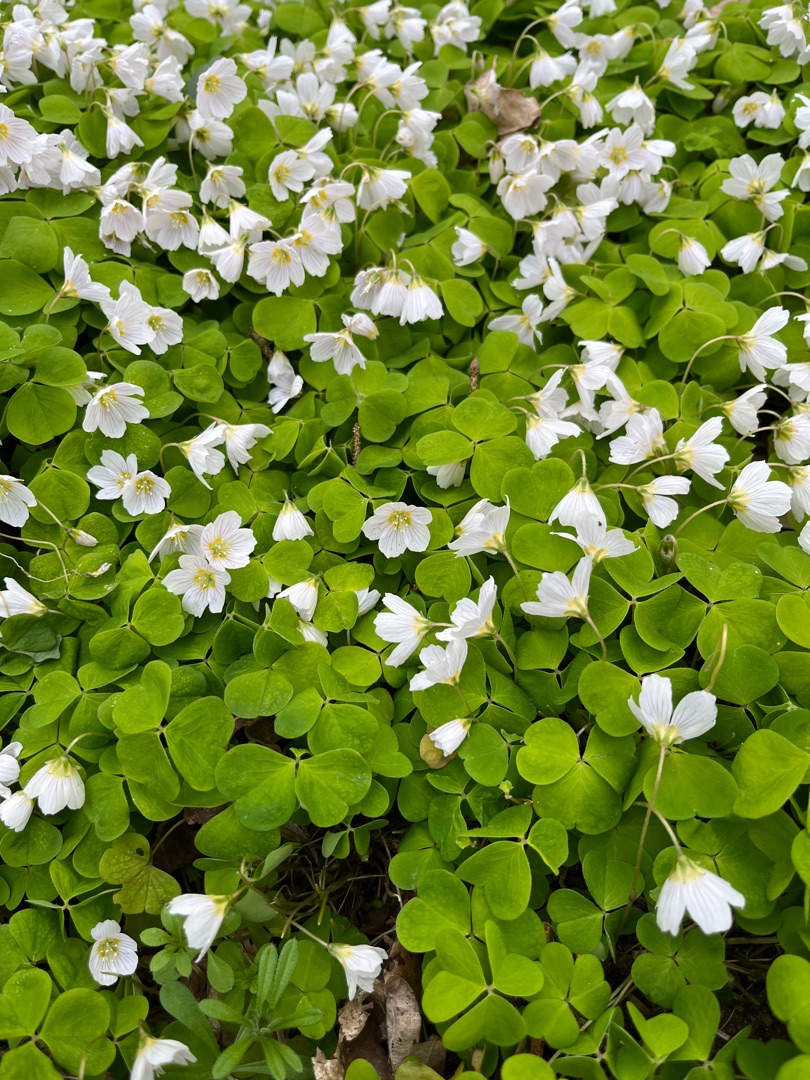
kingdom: Plantae
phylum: Tracheophyta
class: Magnoliopsida
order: Oxalidales
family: Oxalidaceae
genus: Oxalis
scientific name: Oxalis acetosella
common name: Skovsyre
